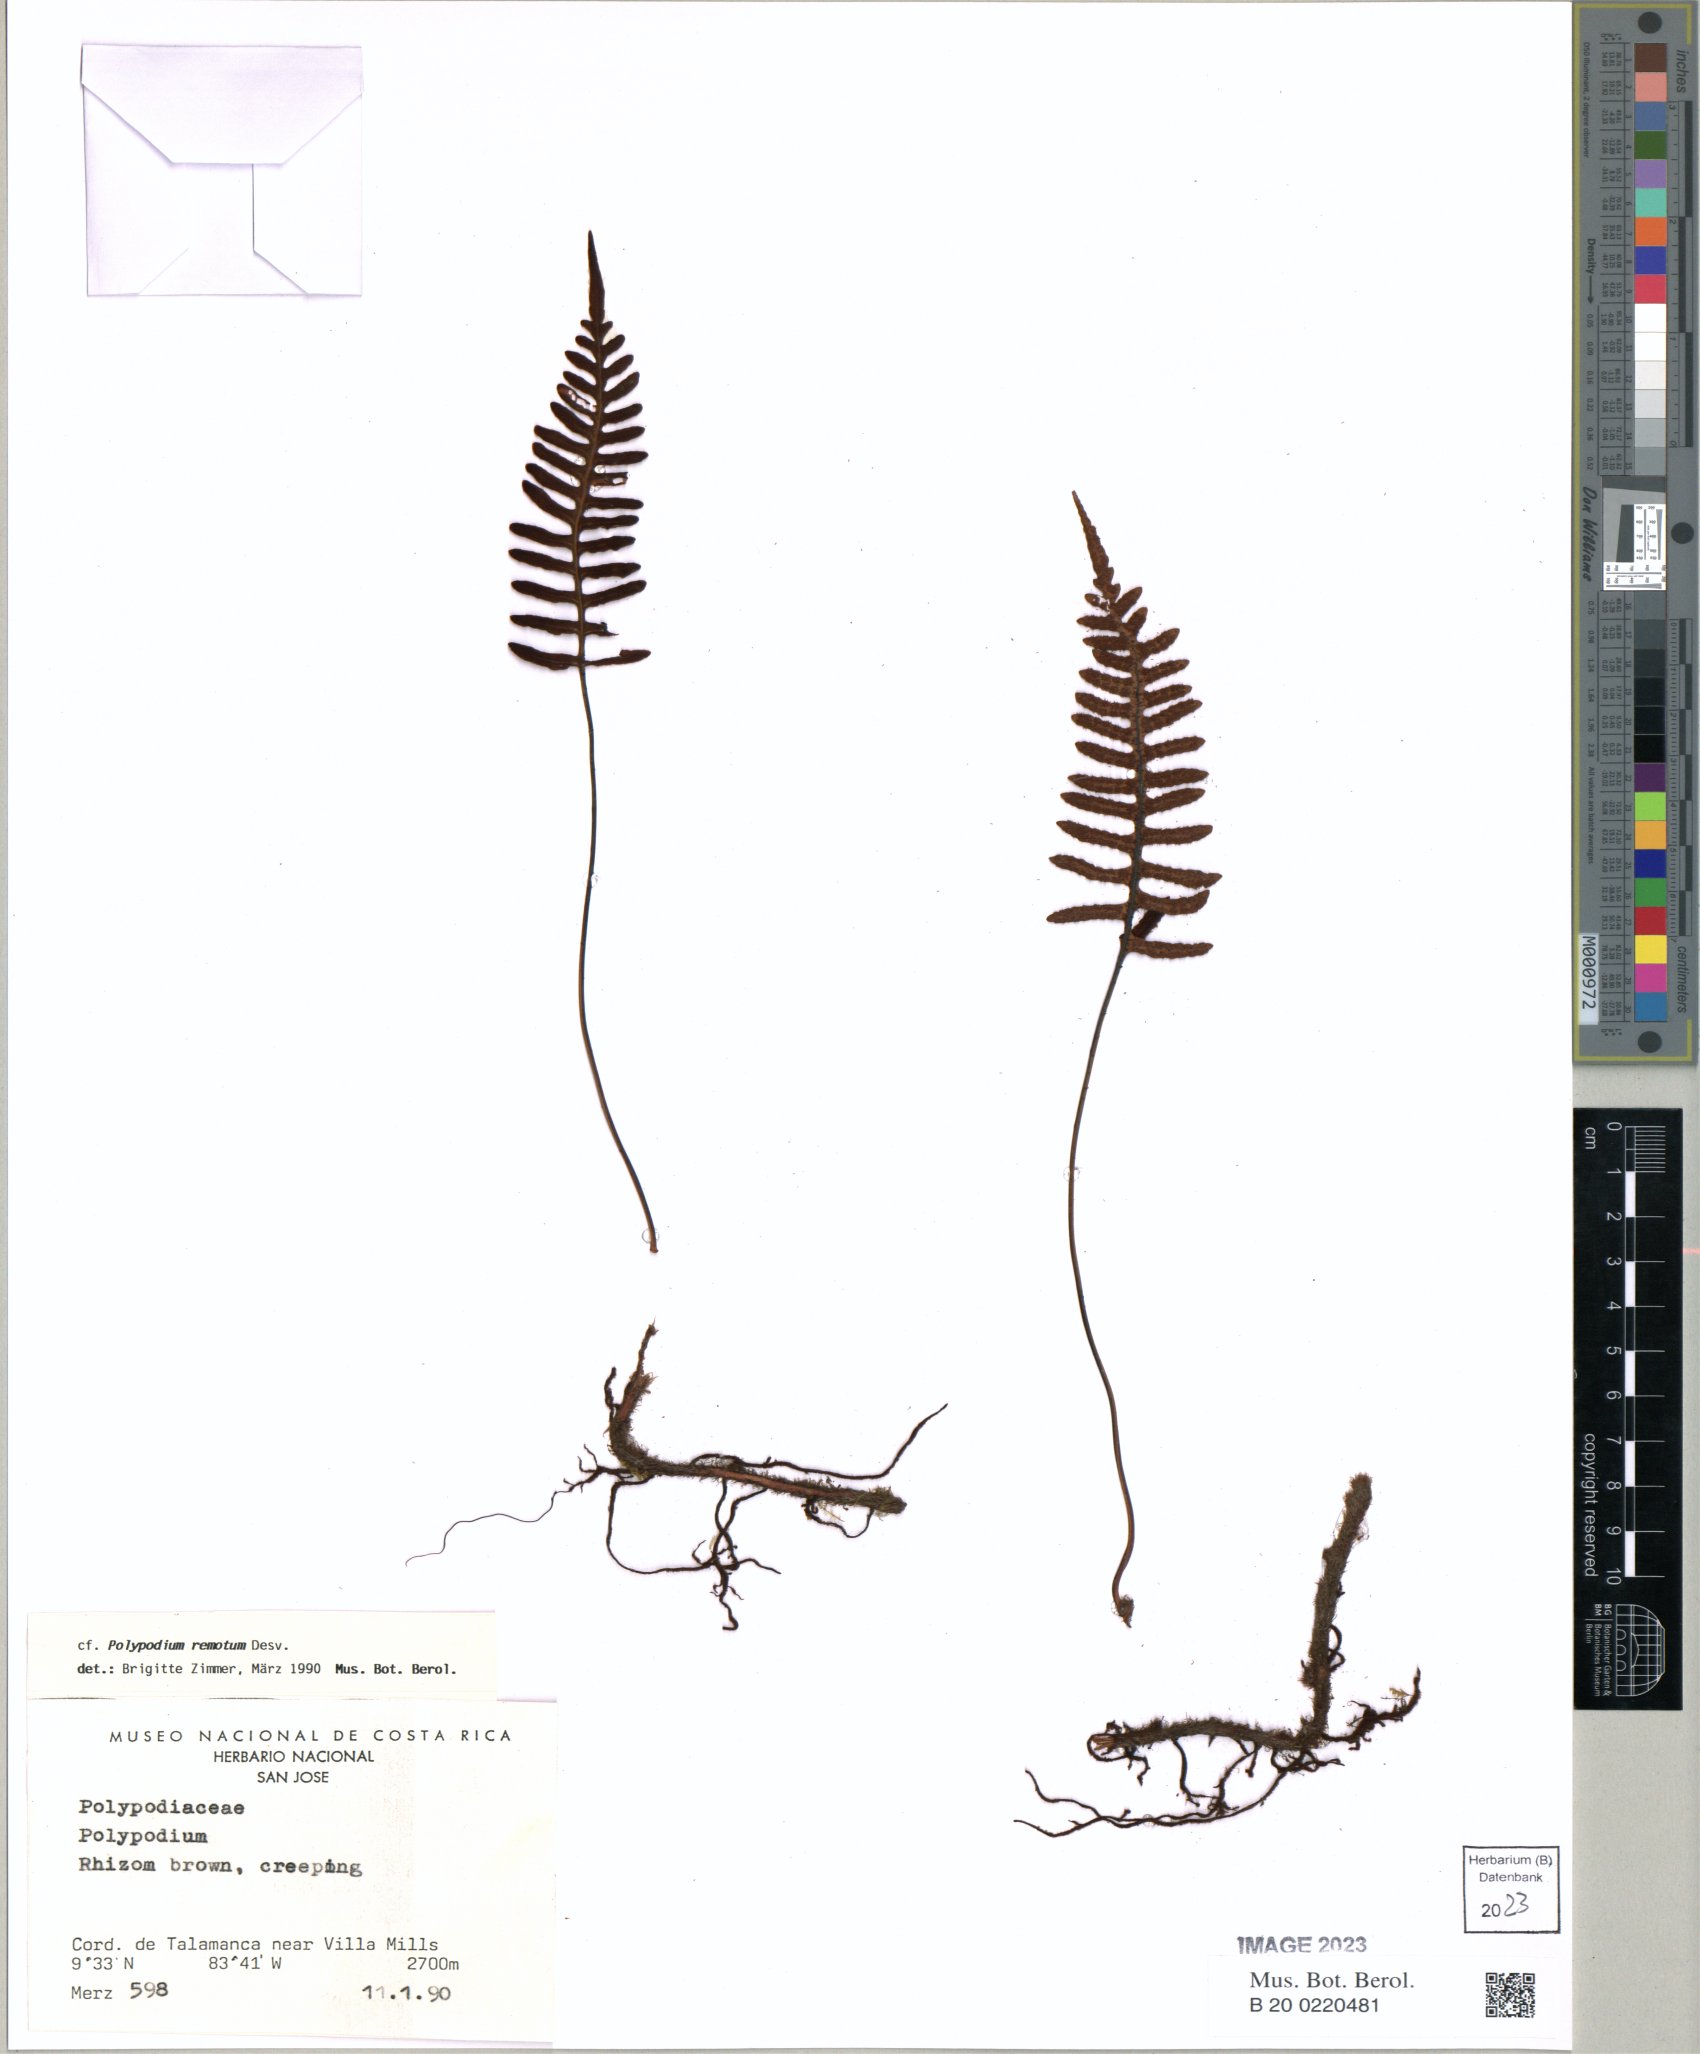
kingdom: Plantae
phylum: Tracheophyta
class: Polypodiopsida
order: Polypodiales
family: Polypodiaceae
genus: Pleopeltis
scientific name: Pleopeltis remota
